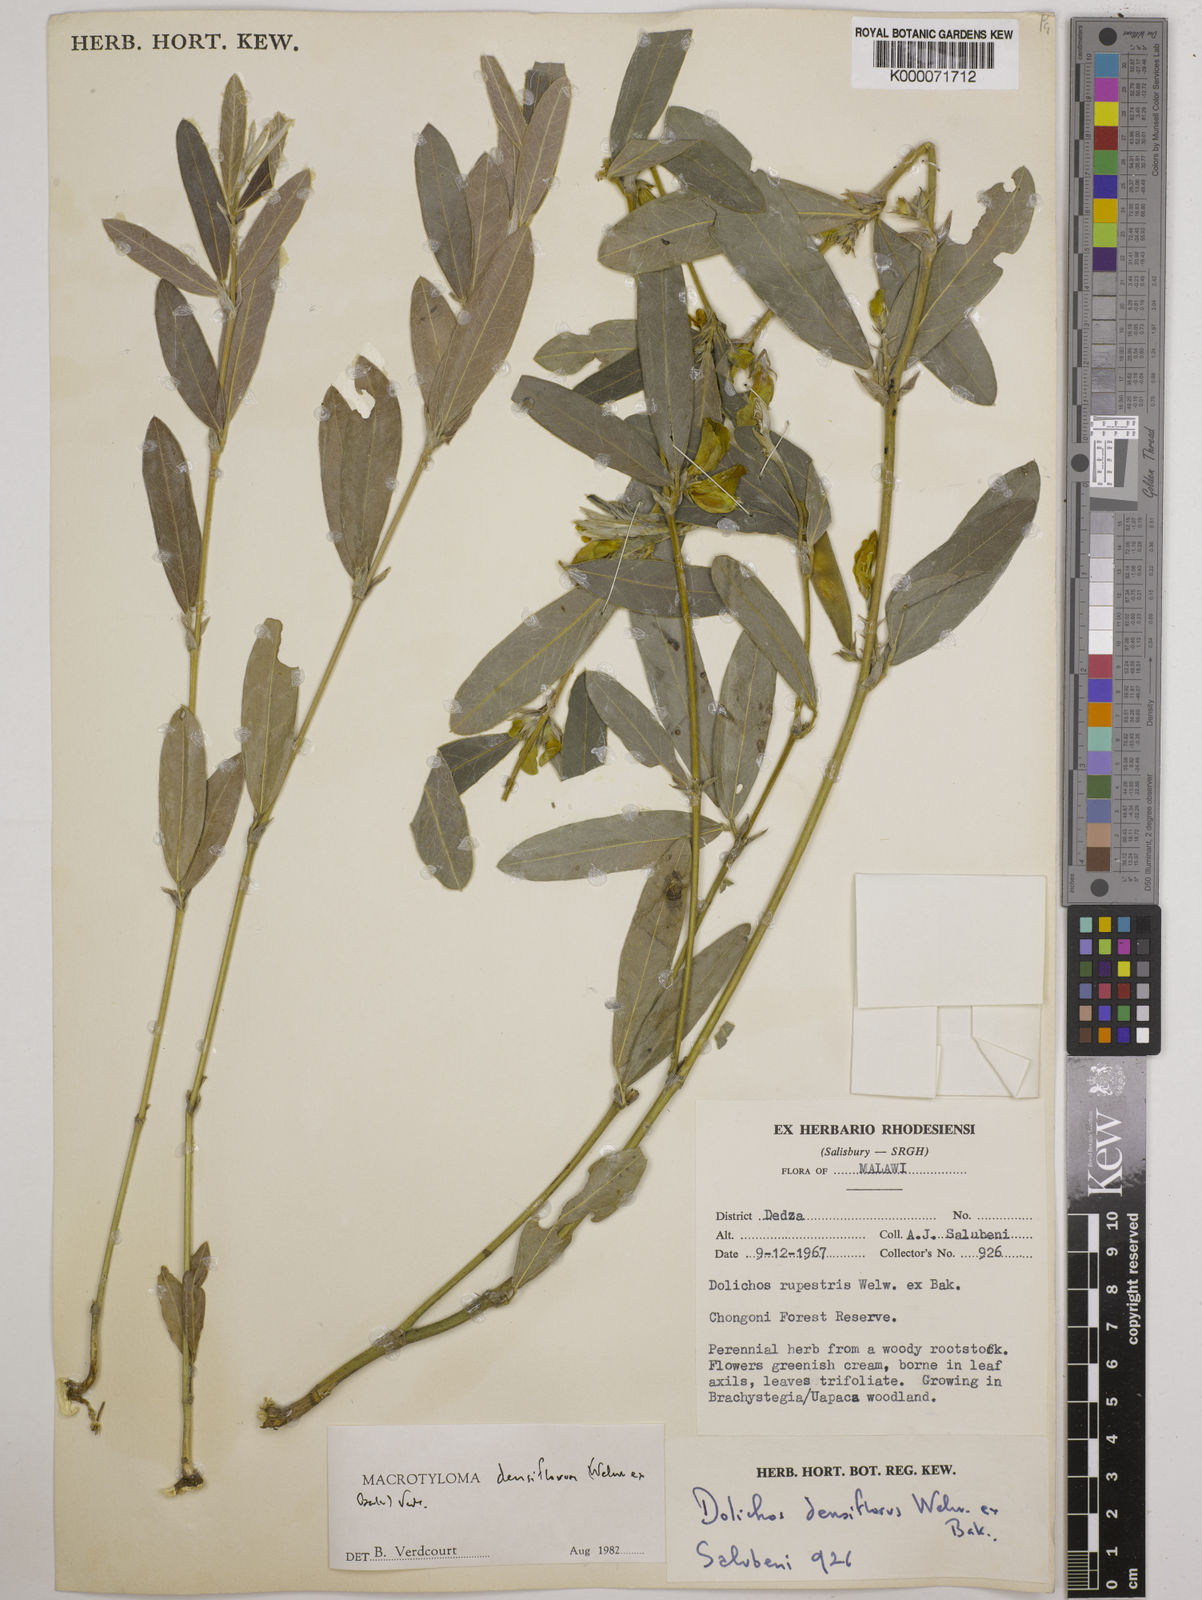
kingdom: Plantae
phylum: Tracheophyta
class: Magnoliopsida
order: Fabales
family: Fabaceae
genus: Macrotyloma
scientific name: Macrotyloma densiflorum
